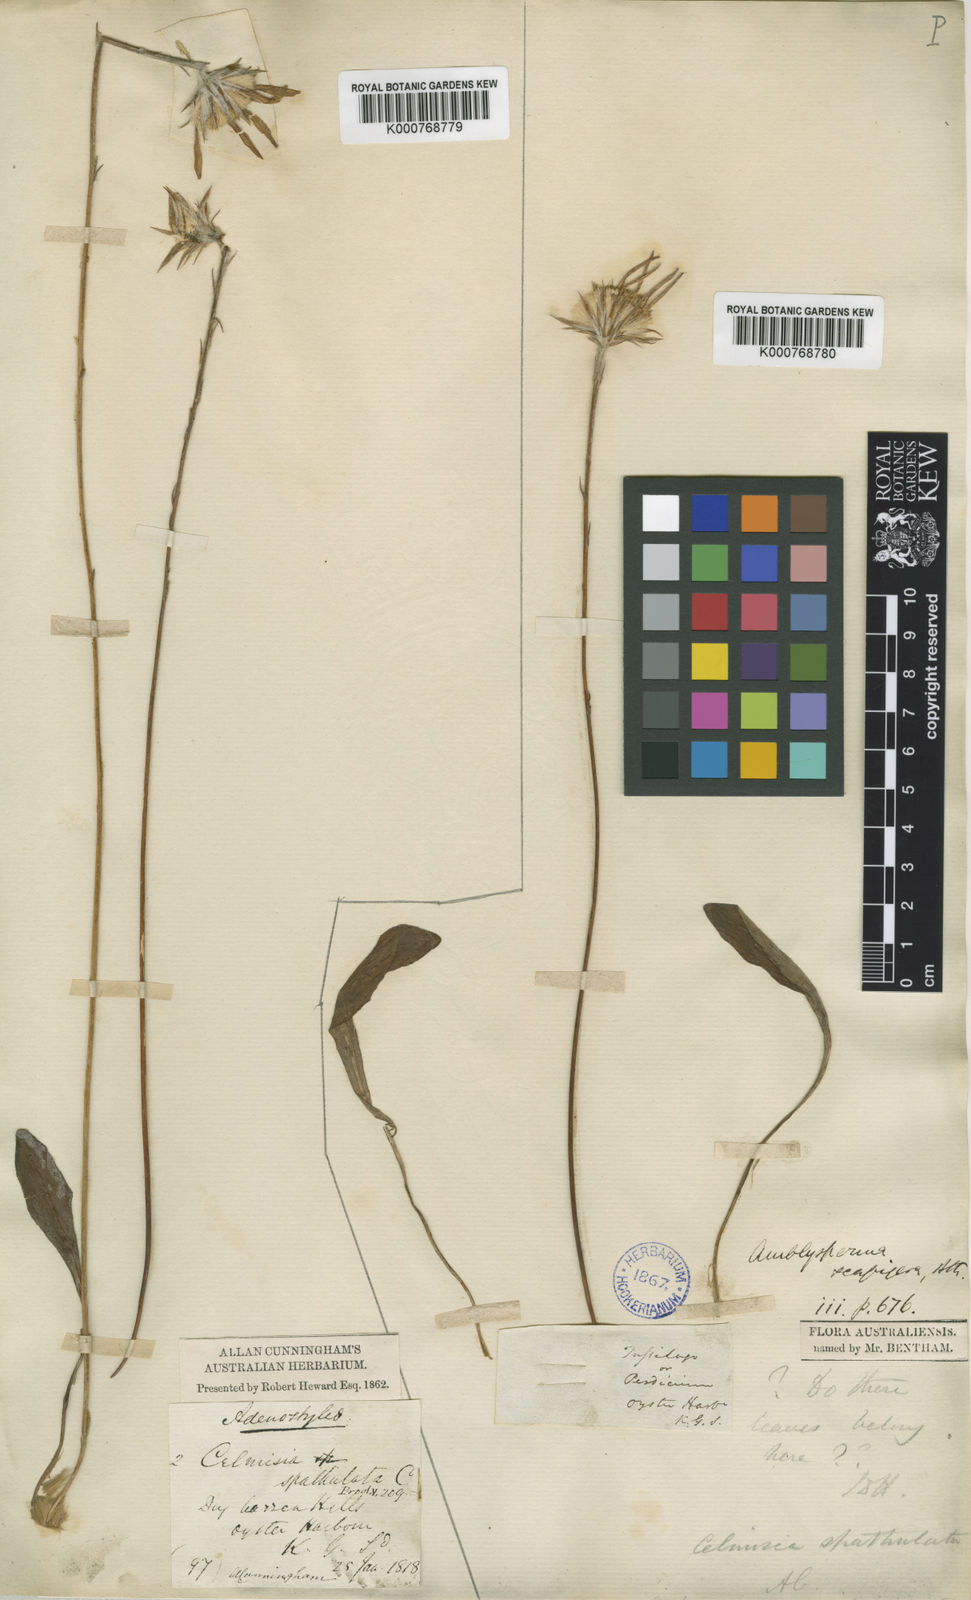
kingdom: Plantae
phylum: Tracheophyta
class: Magnoliopsida
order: Asterales
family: Asteraceae
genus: Amblysperma
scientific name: Amblysperma spathulata
